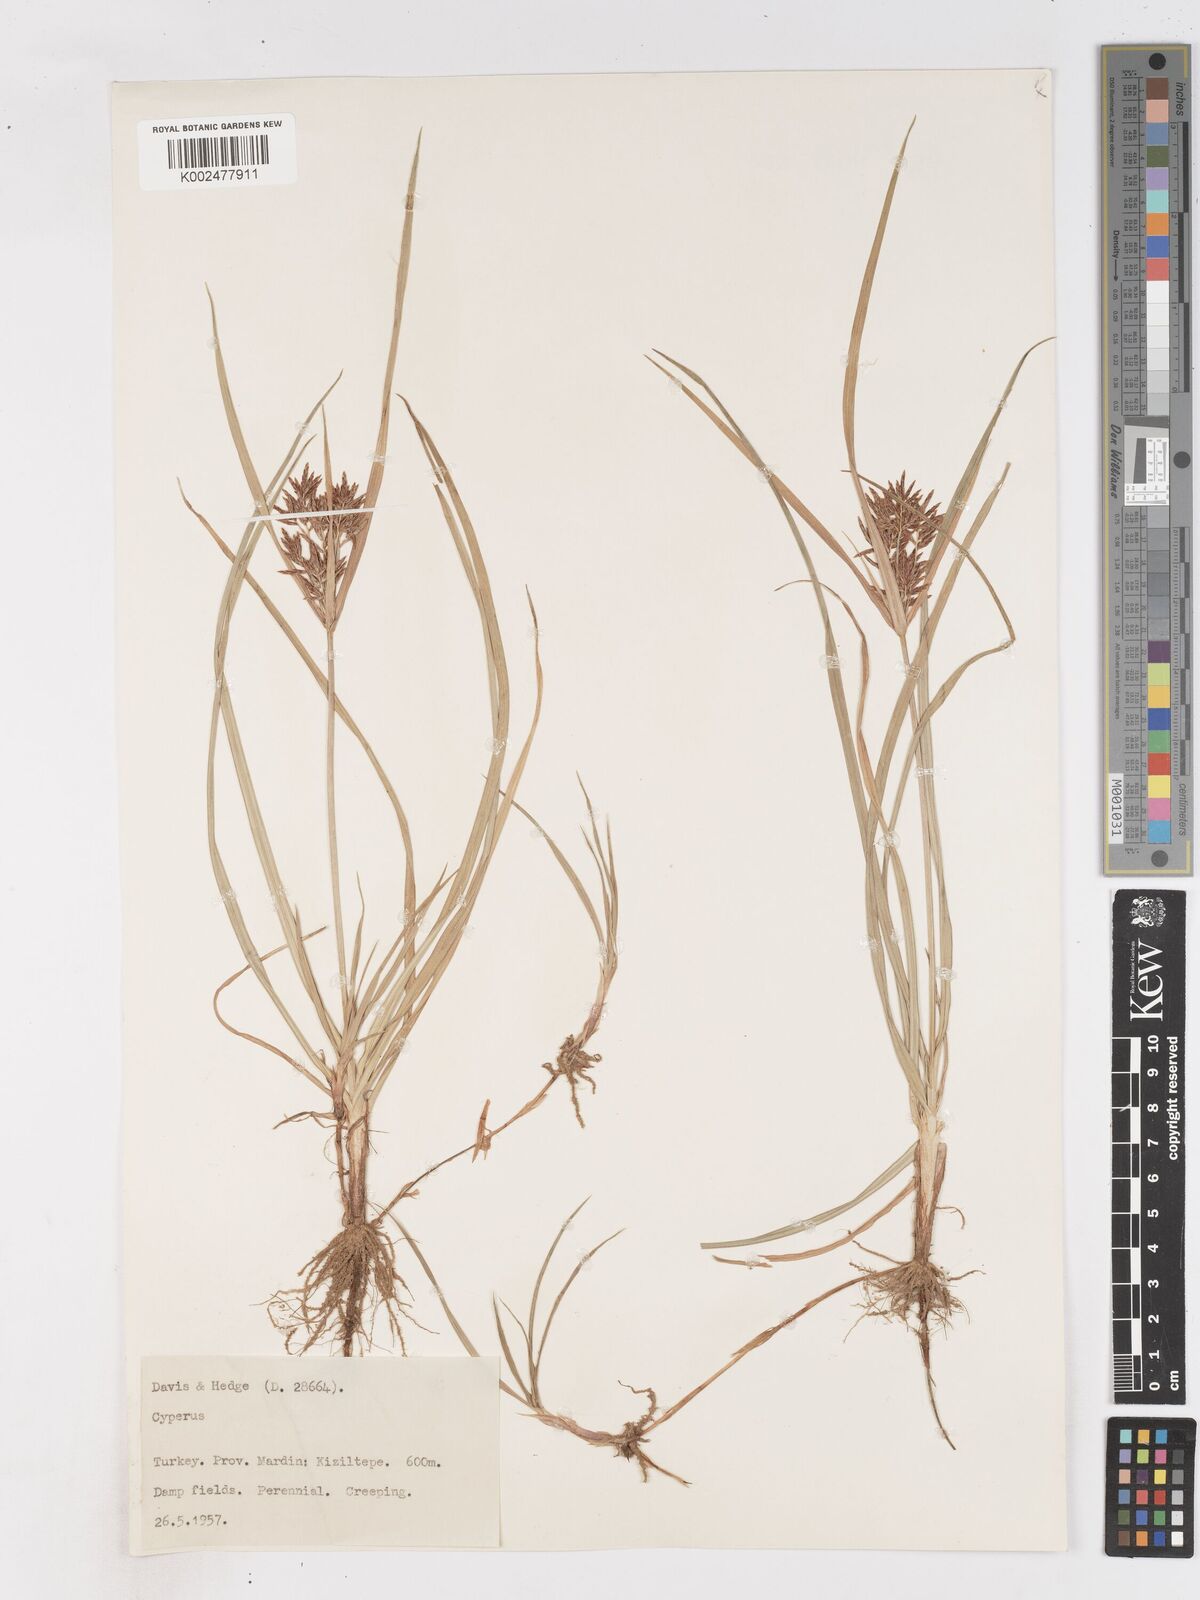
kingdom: Plantae
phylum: Tracheophyta
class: Liliopsida
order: Poales
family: Cyperaceae
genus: Cyperus
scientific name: Cyperus rotundus
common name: Nutgrass
